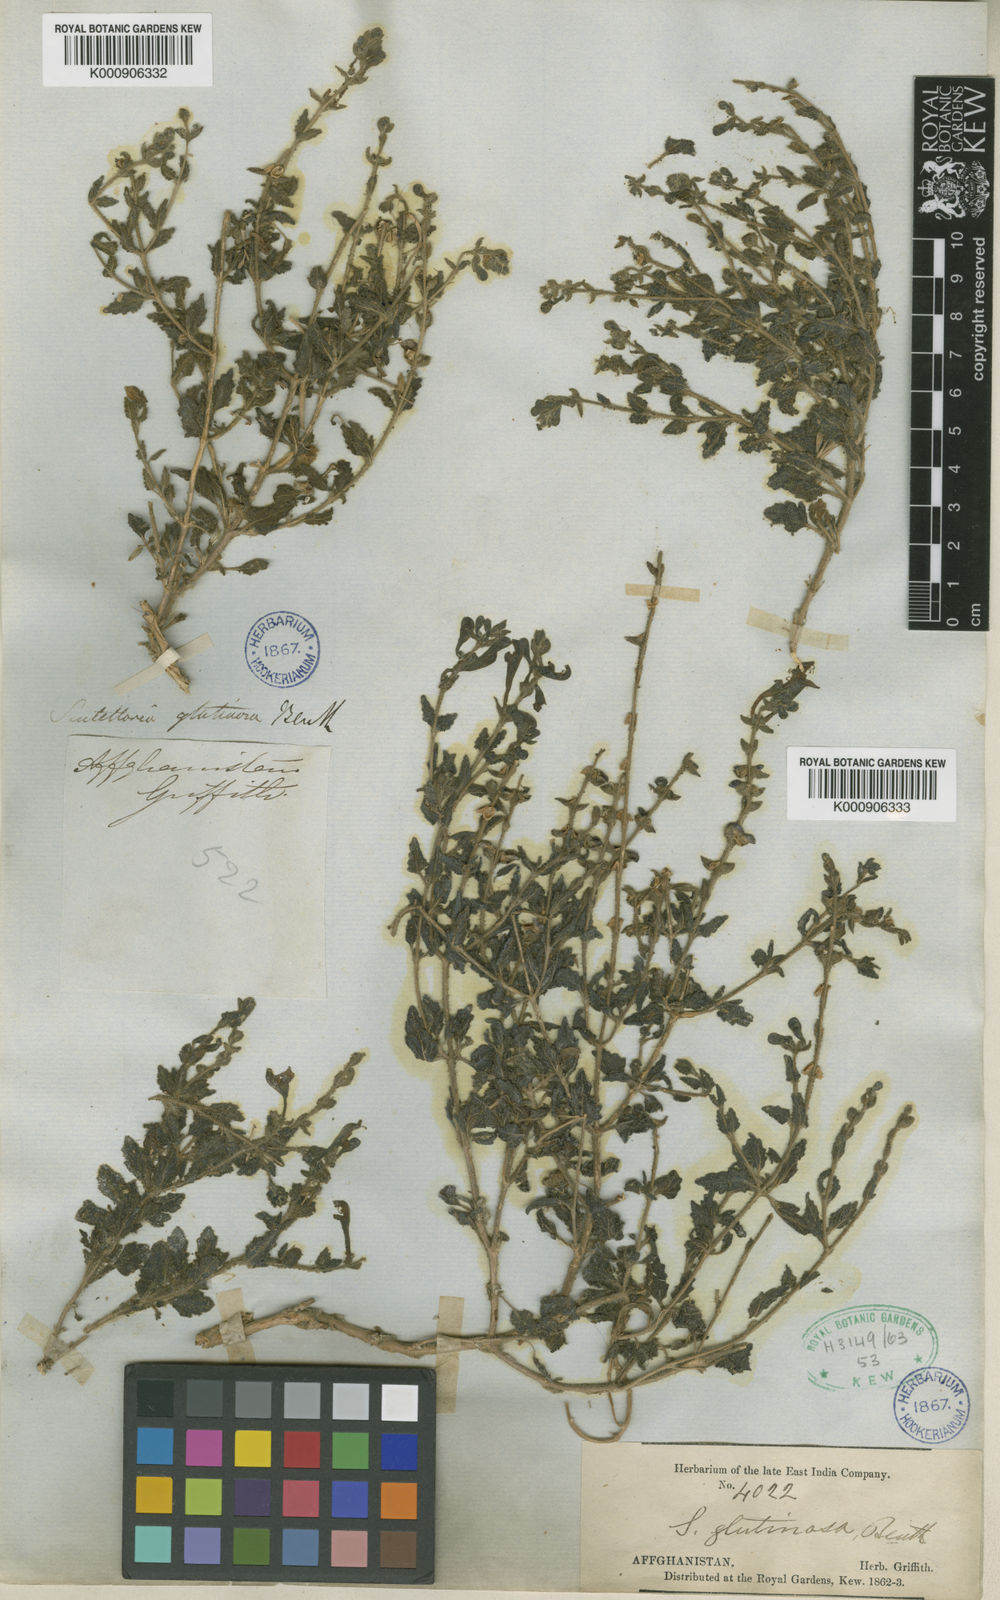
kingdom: Plantae
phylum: Tracheophyta
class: Magnoliopsida
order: Lamiales
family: Lamiaceae
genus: Scutellaria
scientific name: Scutellaria glutinosa
